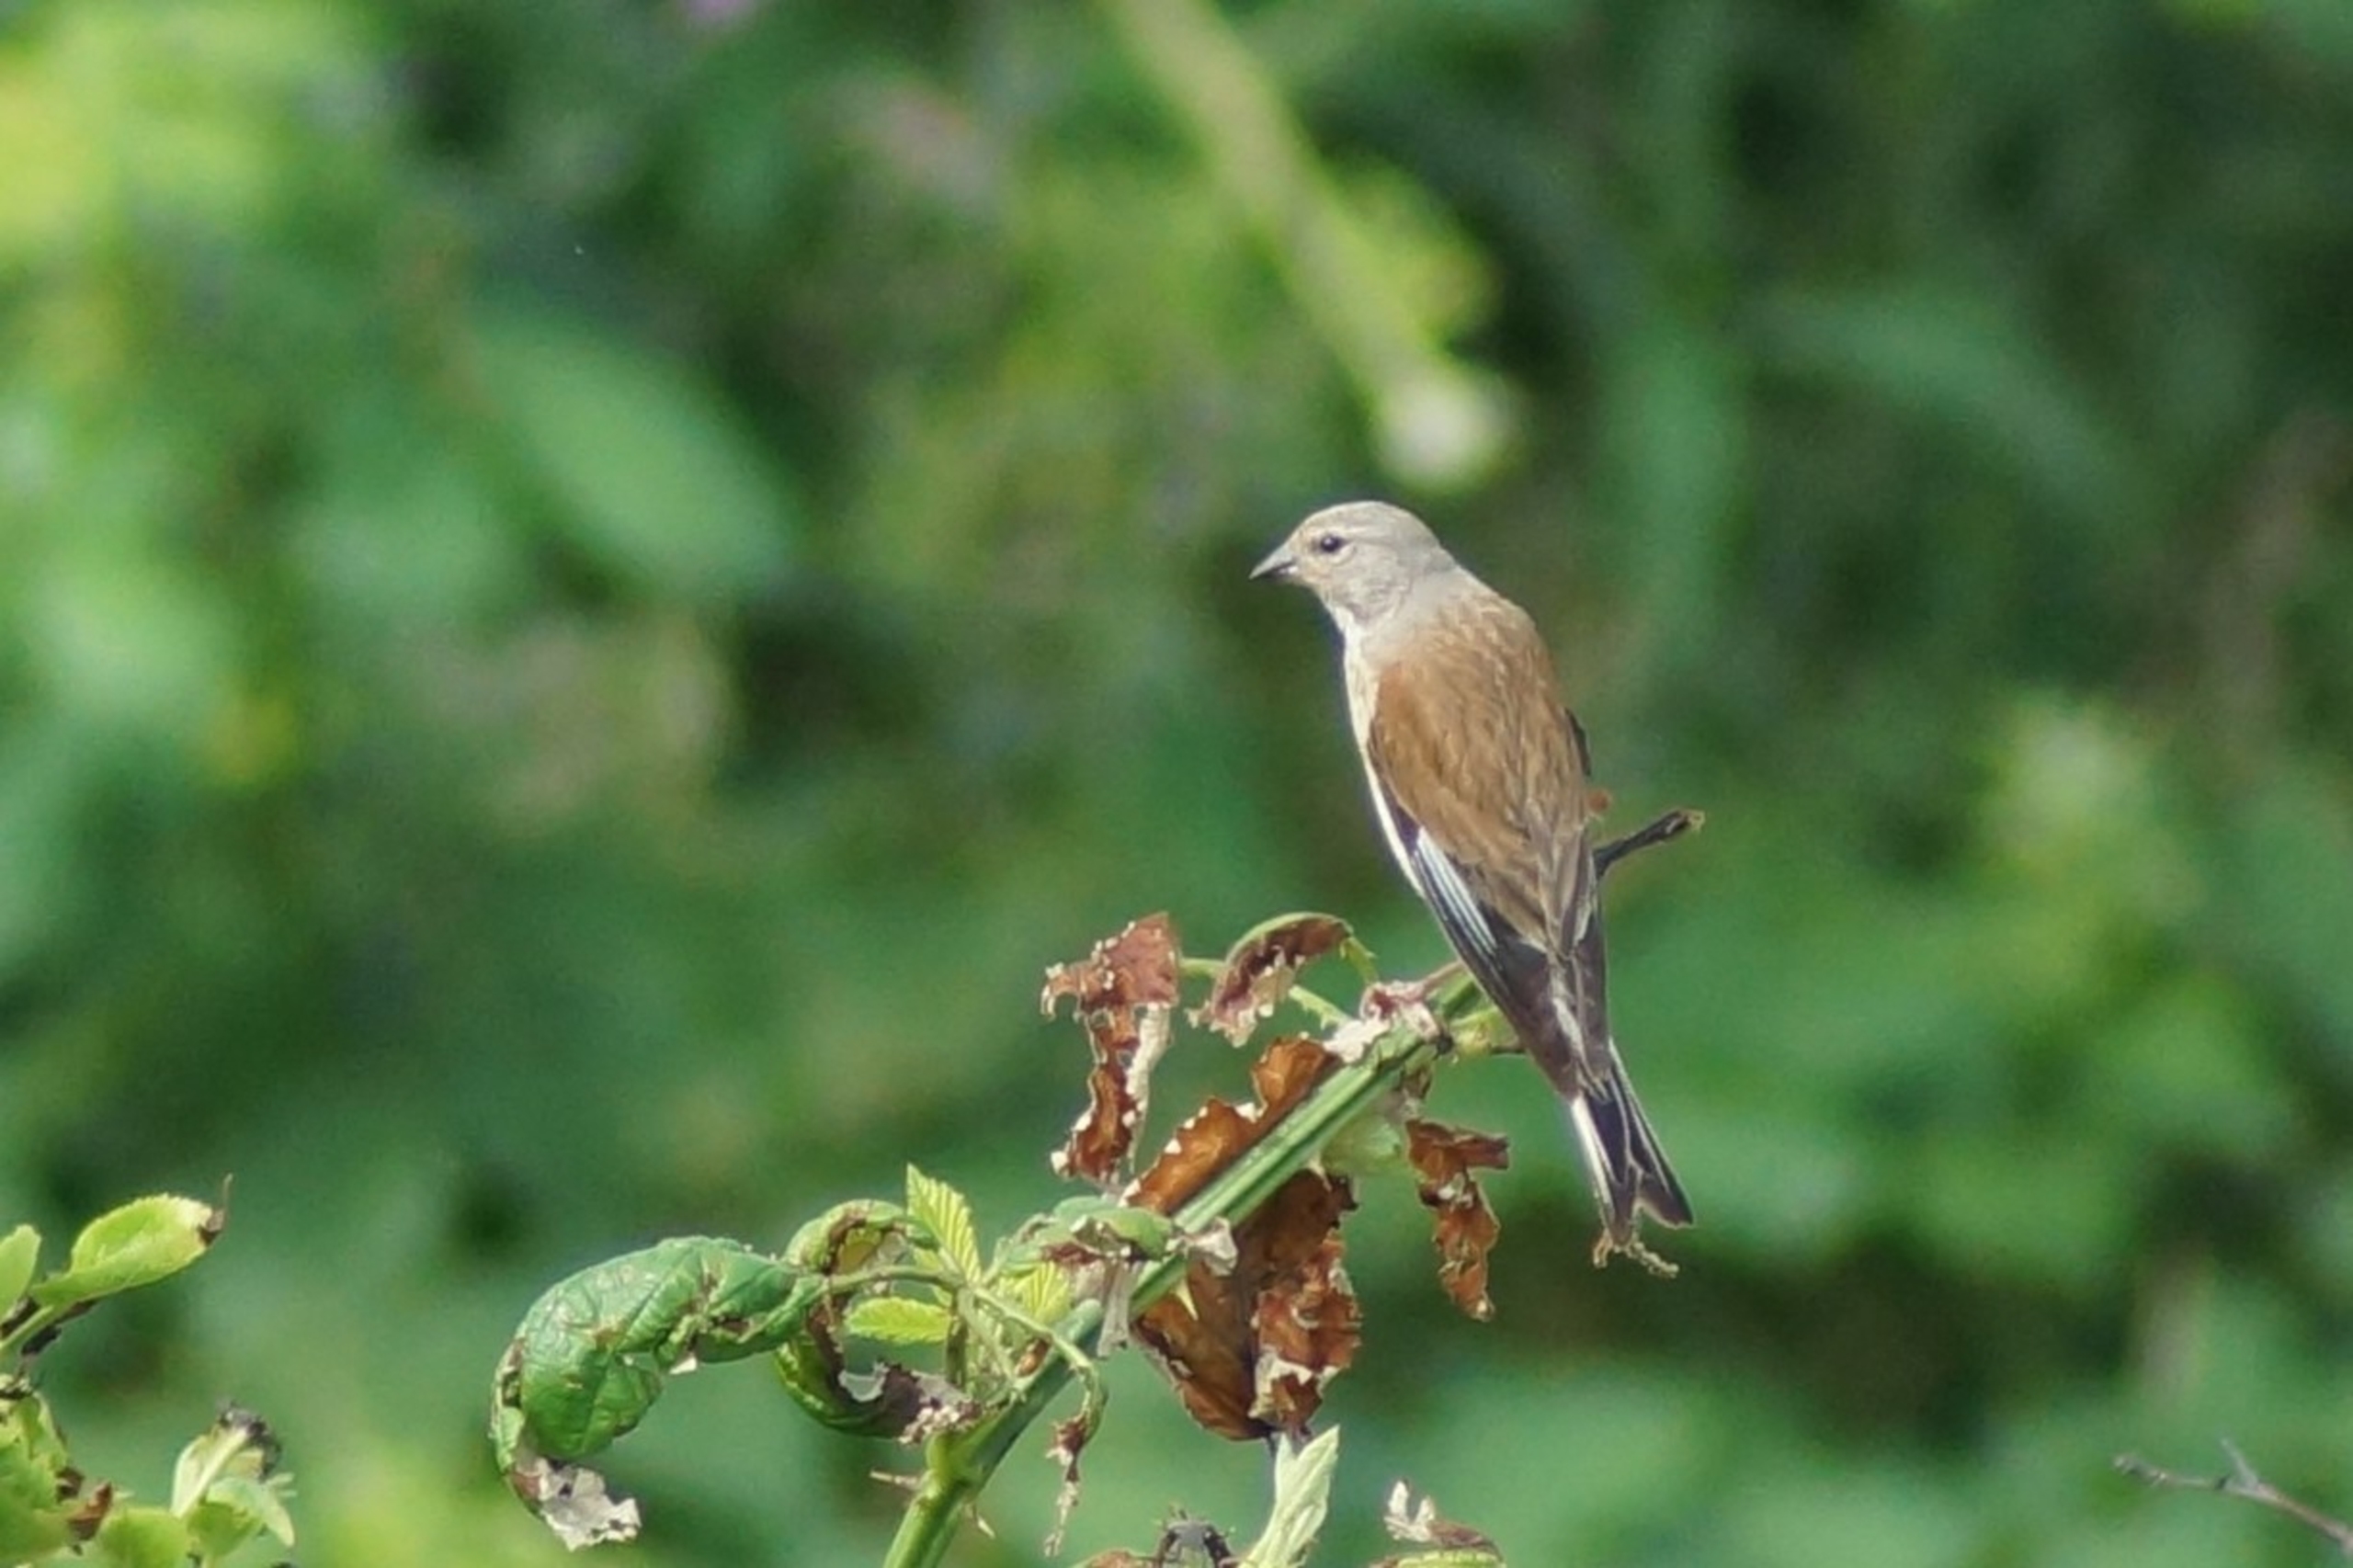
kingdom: Animalia
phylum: Chordata
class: Aves
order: Passeriformes
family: Fringillidae
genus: Linaria
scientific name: Linaria cannabina
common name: Tornirisk
